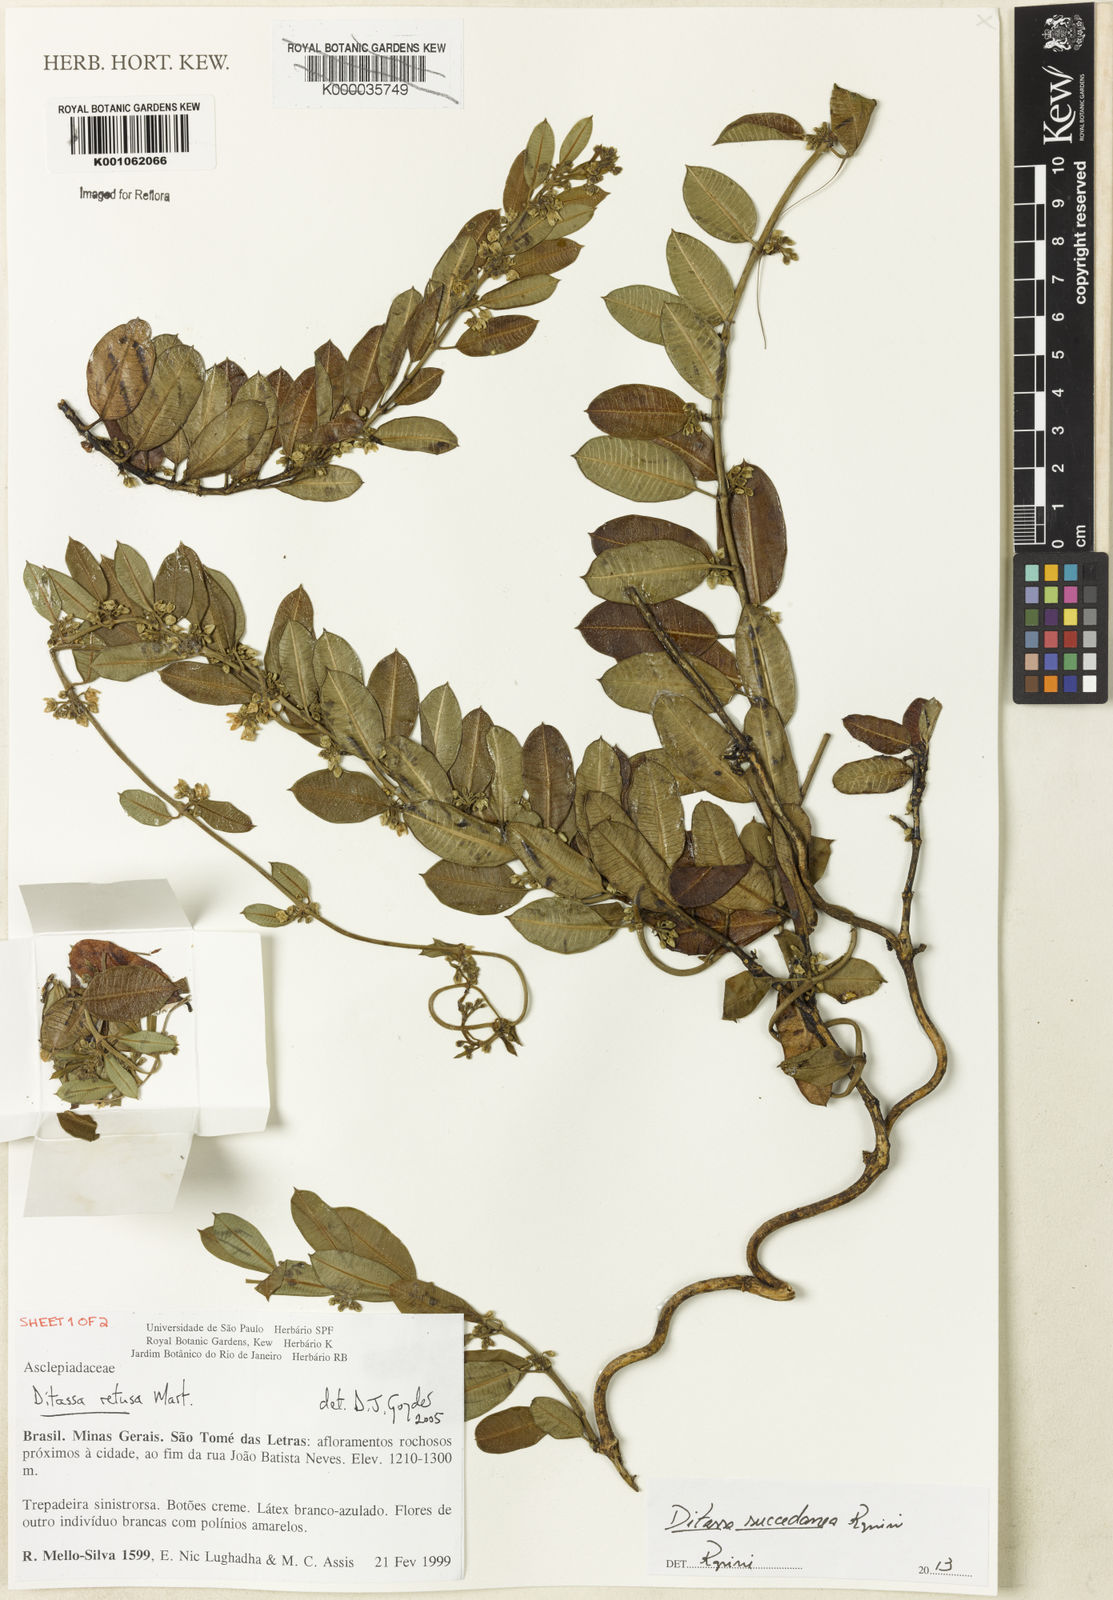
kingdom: Plantae
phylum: Tracheophyta
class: Magnoliopsida
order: Gentianales
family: Apocynaceae
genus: Ditassa
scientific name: Ditassa succedanea
